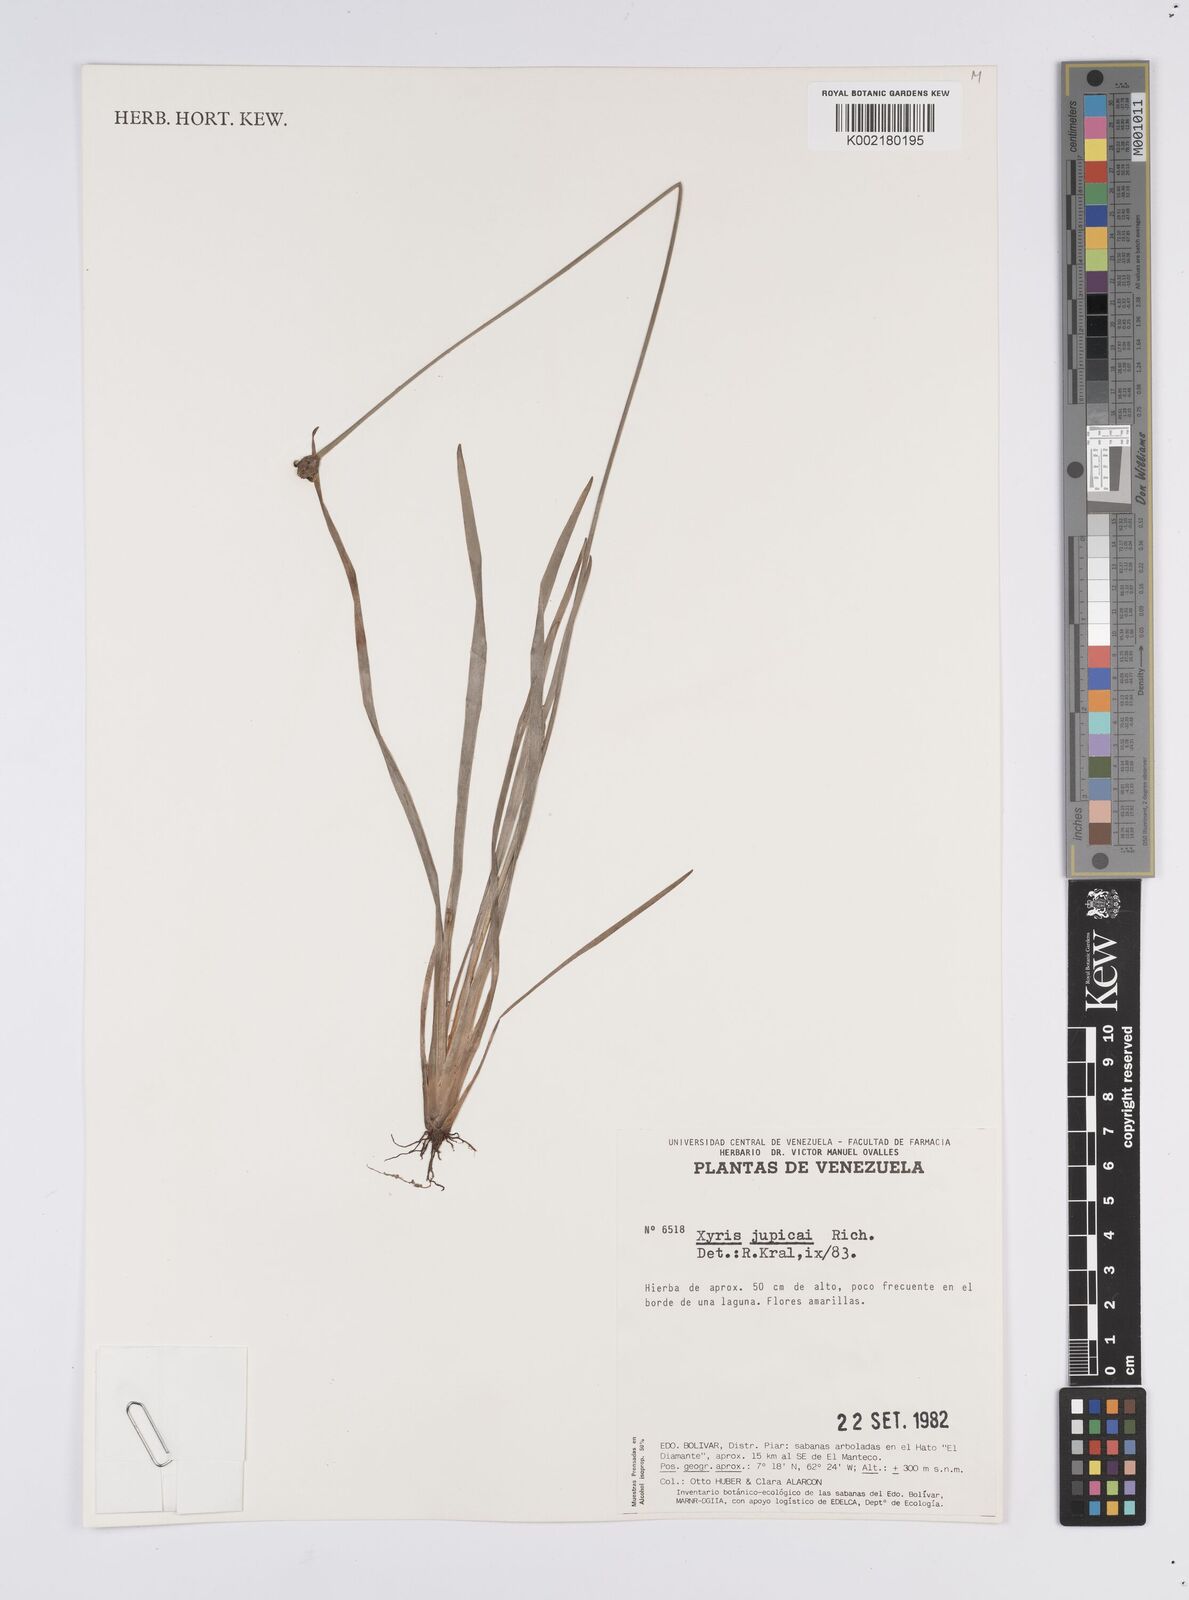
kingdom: Plantae
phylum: Tracheophyta
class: Liliopsida
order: Poales
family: Xyridaceae
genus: Xyris
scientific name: Xyris jupicai
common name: Richard's yelloweyed grass
